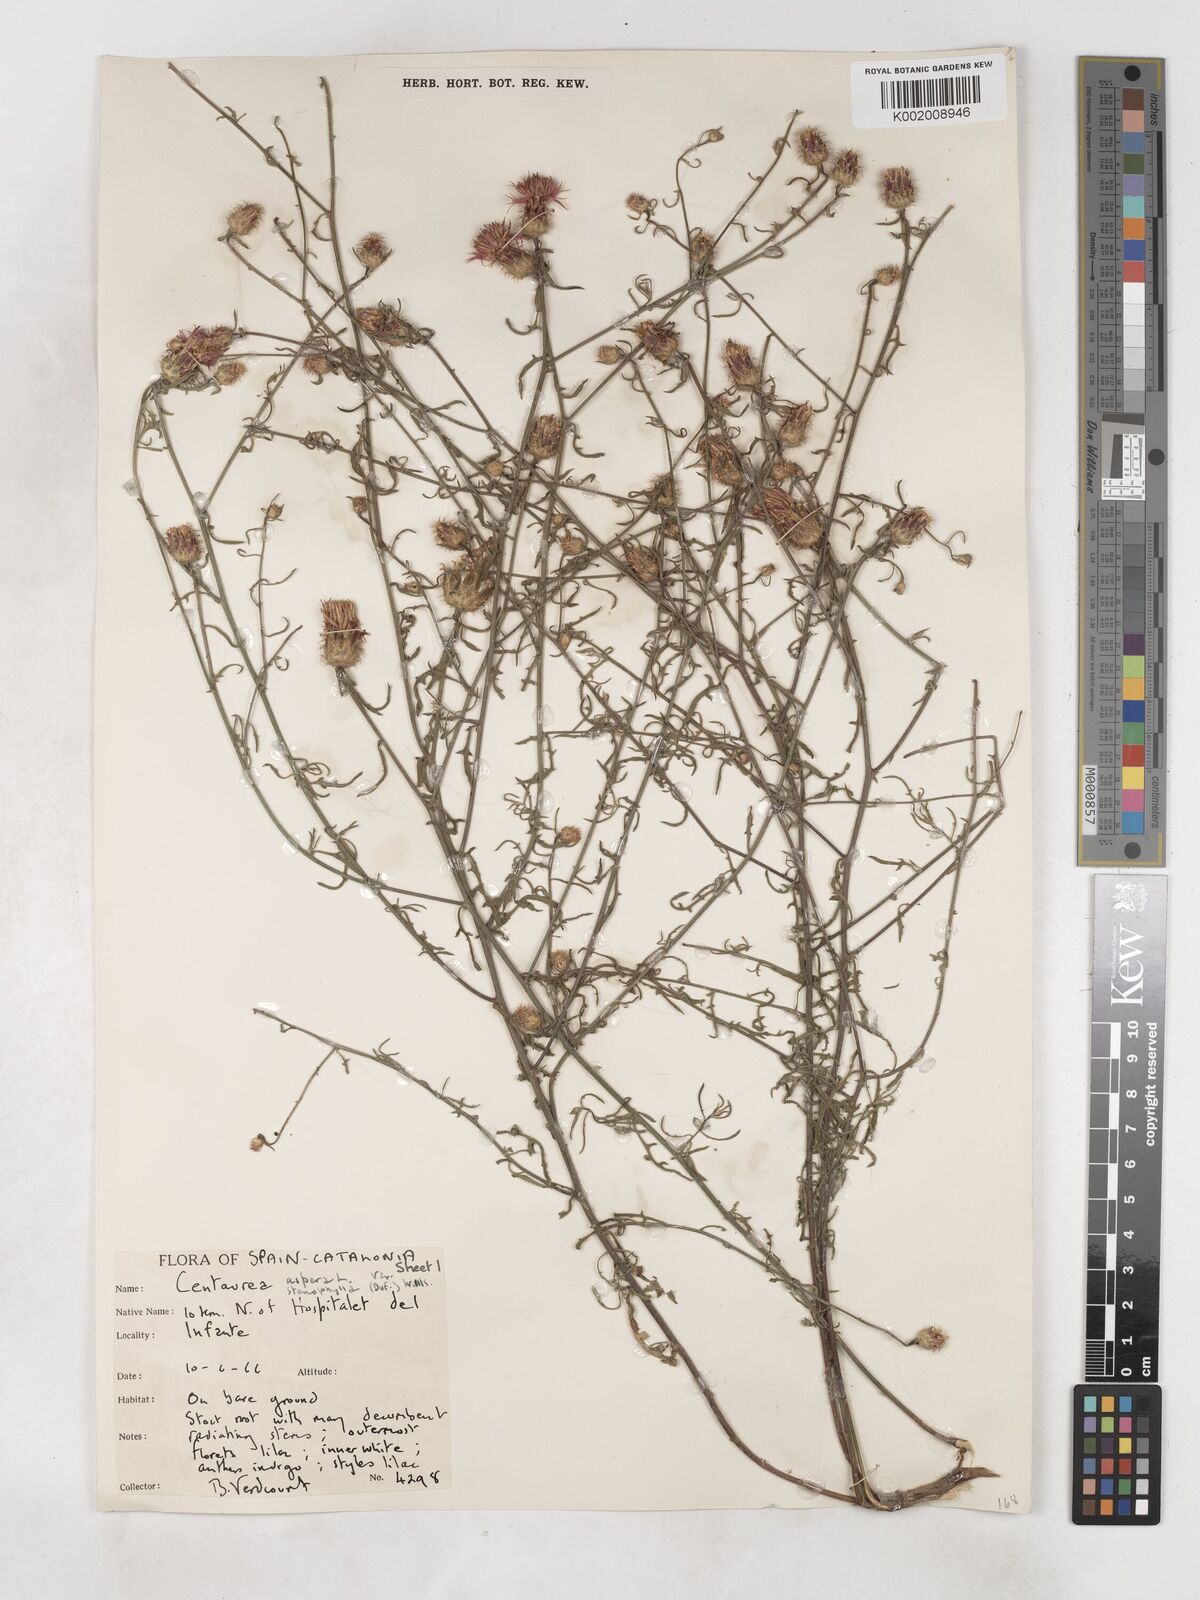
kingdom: Plantae
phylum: Tracheophyta
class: Magnoliopsida
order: Asterales
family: Asteraceae
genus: Centaurea
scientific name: Centaurea aspera
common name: Rough star-thistle
